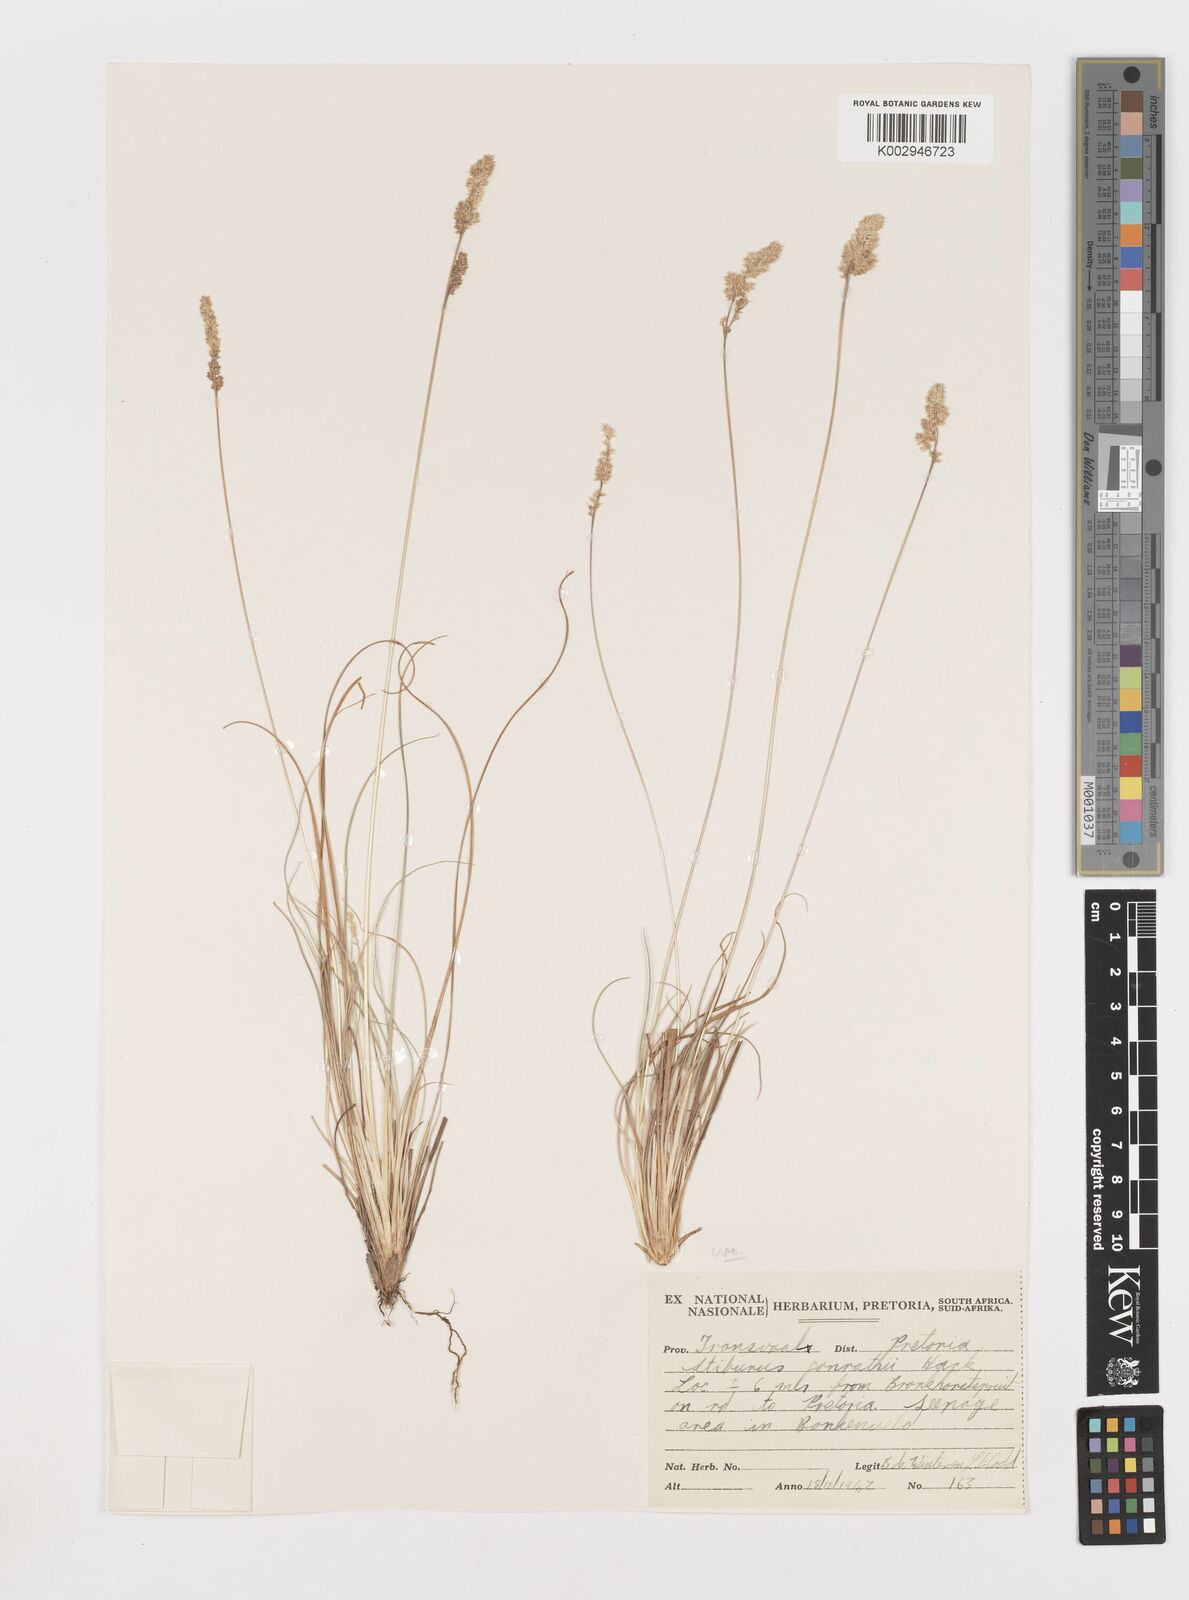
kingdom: Plantae
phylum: Tracheophyta
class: Liliopsida
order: Poales
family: Poaceae
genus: Stiburus
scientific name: Stiburus conrathii
